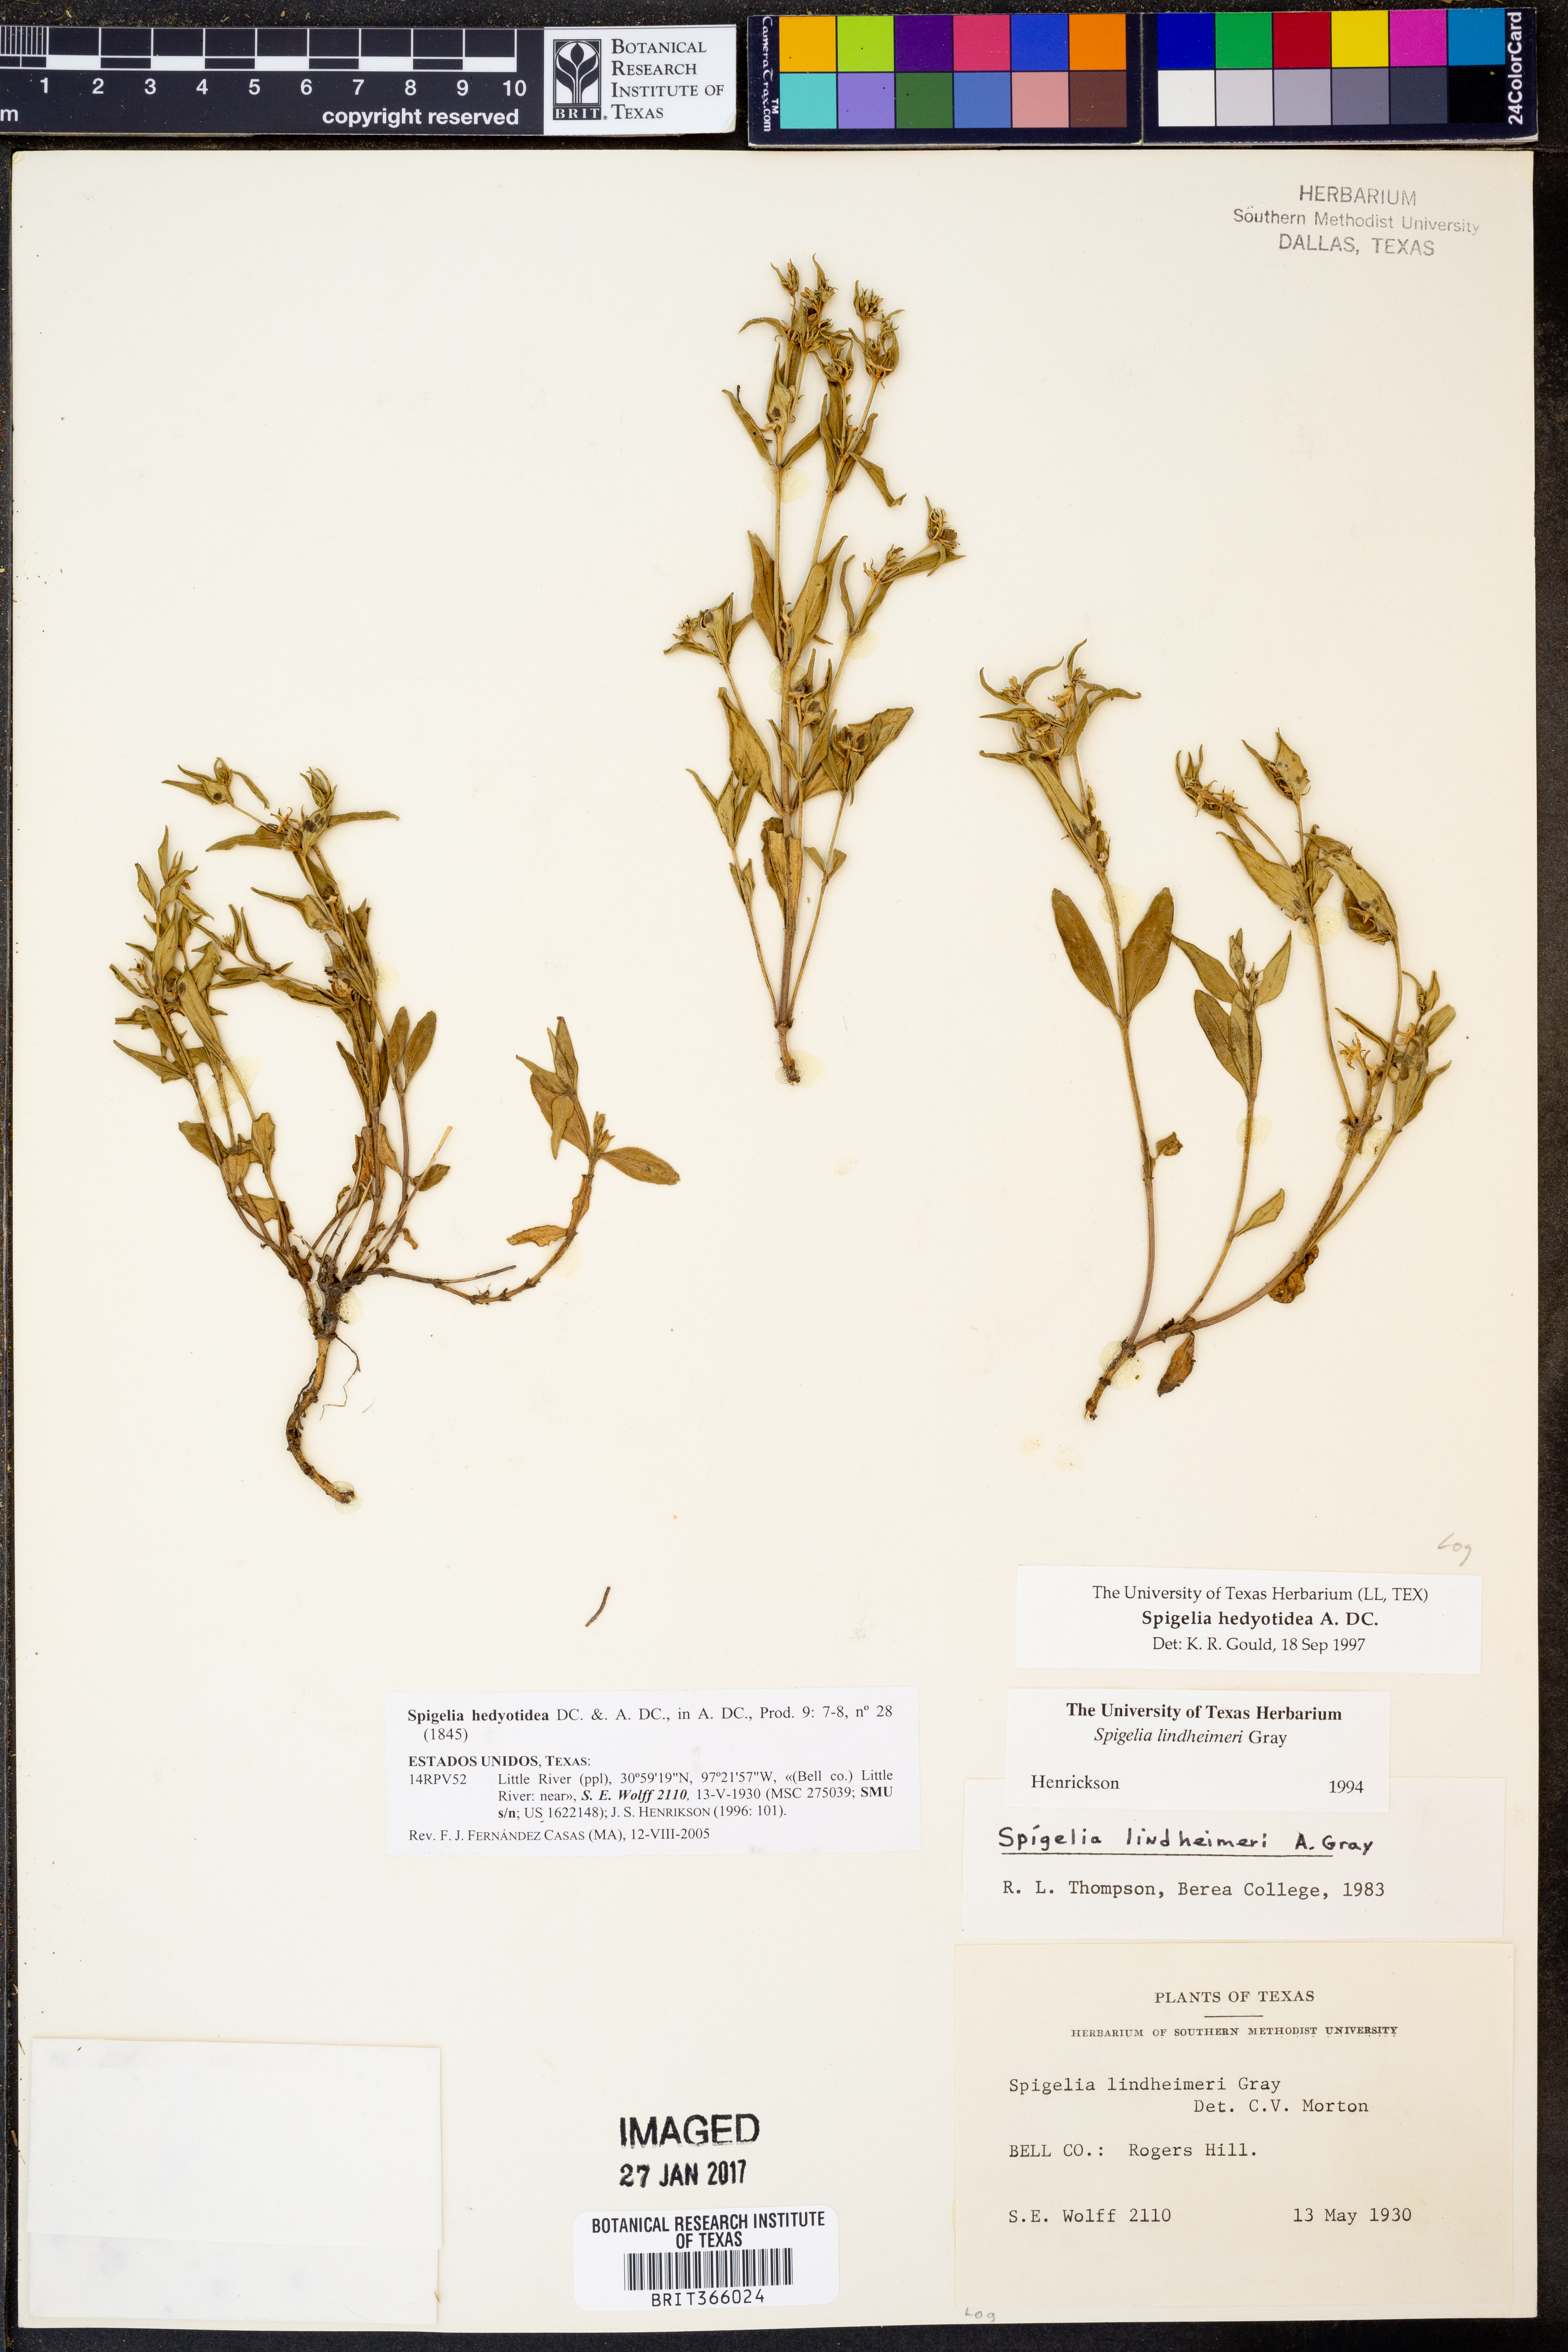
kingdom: Plantae
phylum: Tracheophyta
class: Magnoliopsida
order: Gentianales
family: Loganiaceae
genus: Spigelia
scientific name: Spigelia hedyotidea
